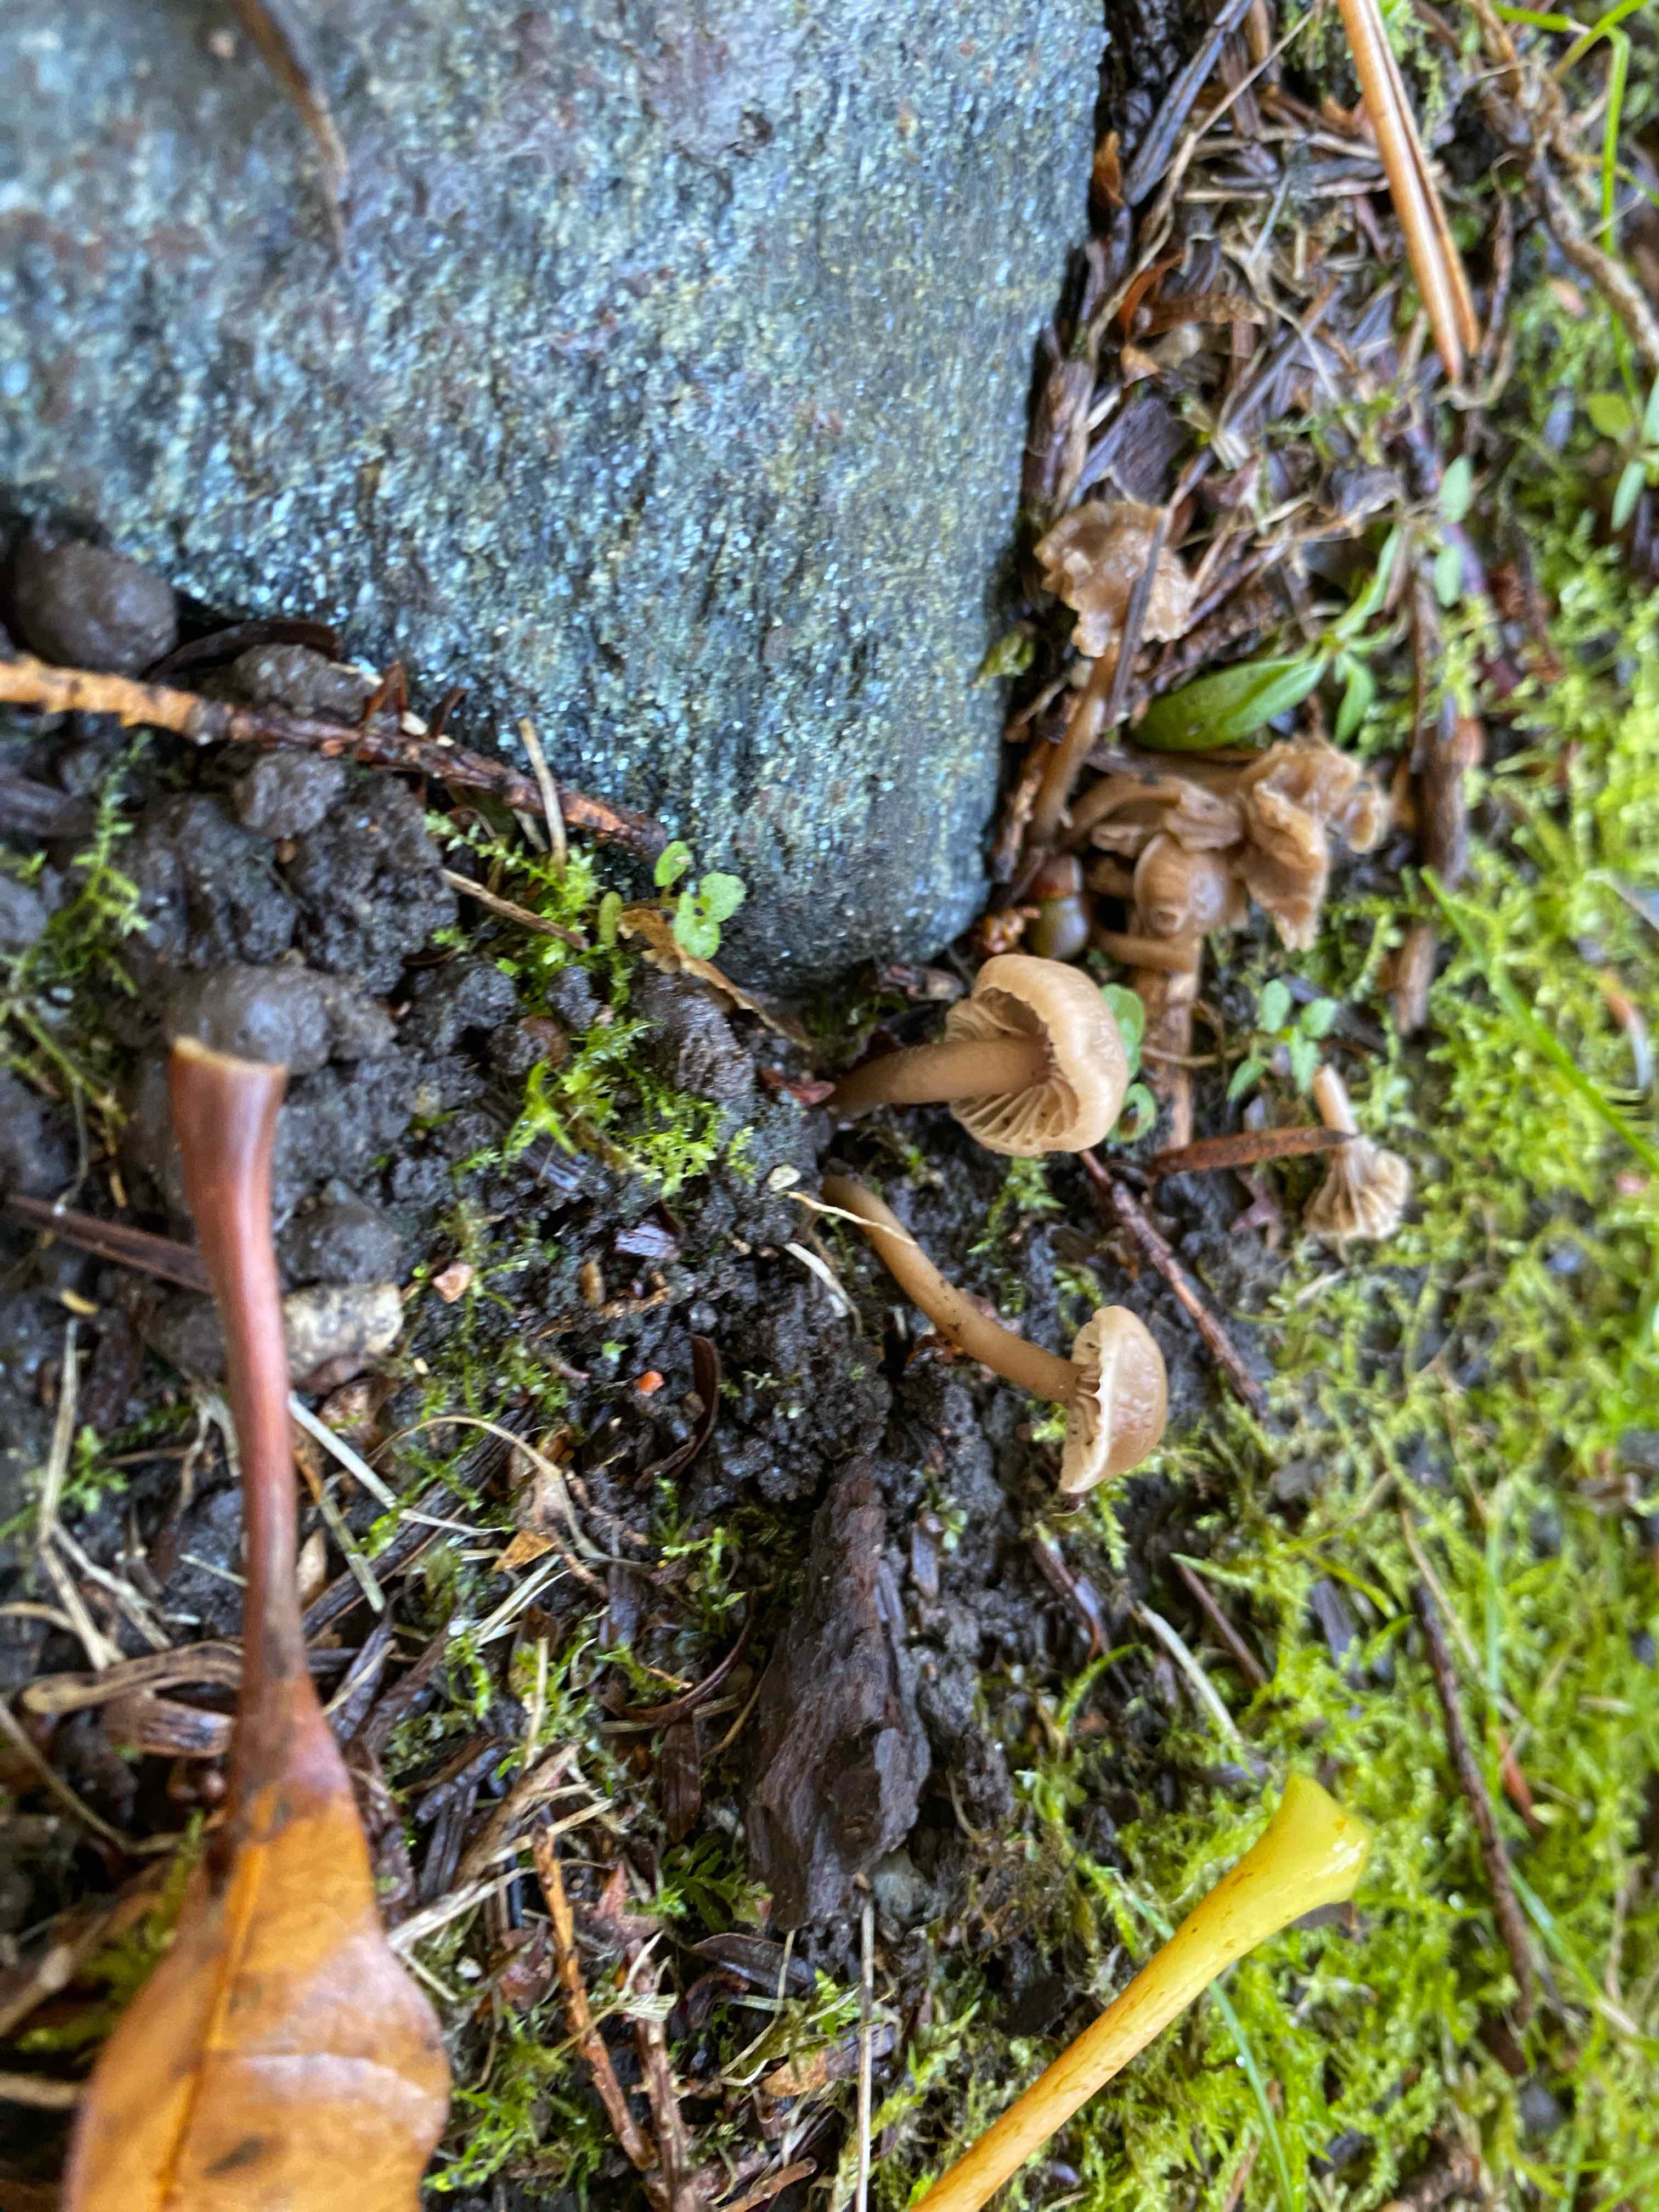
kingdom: Fungi
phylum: Basidiomycota
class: Agaricomycetes
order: Agaricales
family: Clavariaceae
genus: Hodophilus
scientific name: Hodophilus
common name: kratvokshat
